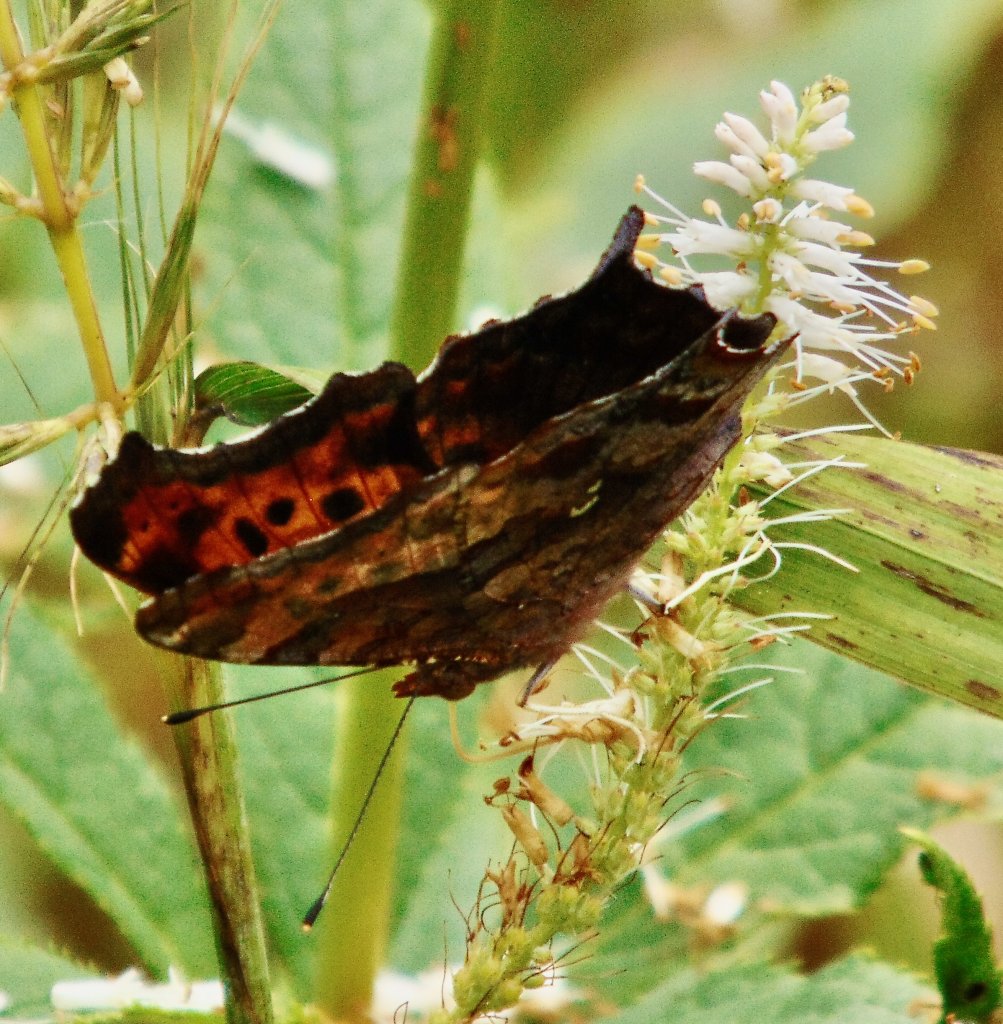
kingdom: Animalia
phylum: Arthropoda
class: Insecta
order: Lepidoptera
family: Nymphalidae
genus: Polygonia
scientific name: Polygonia interrogationis
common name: Question Mark
